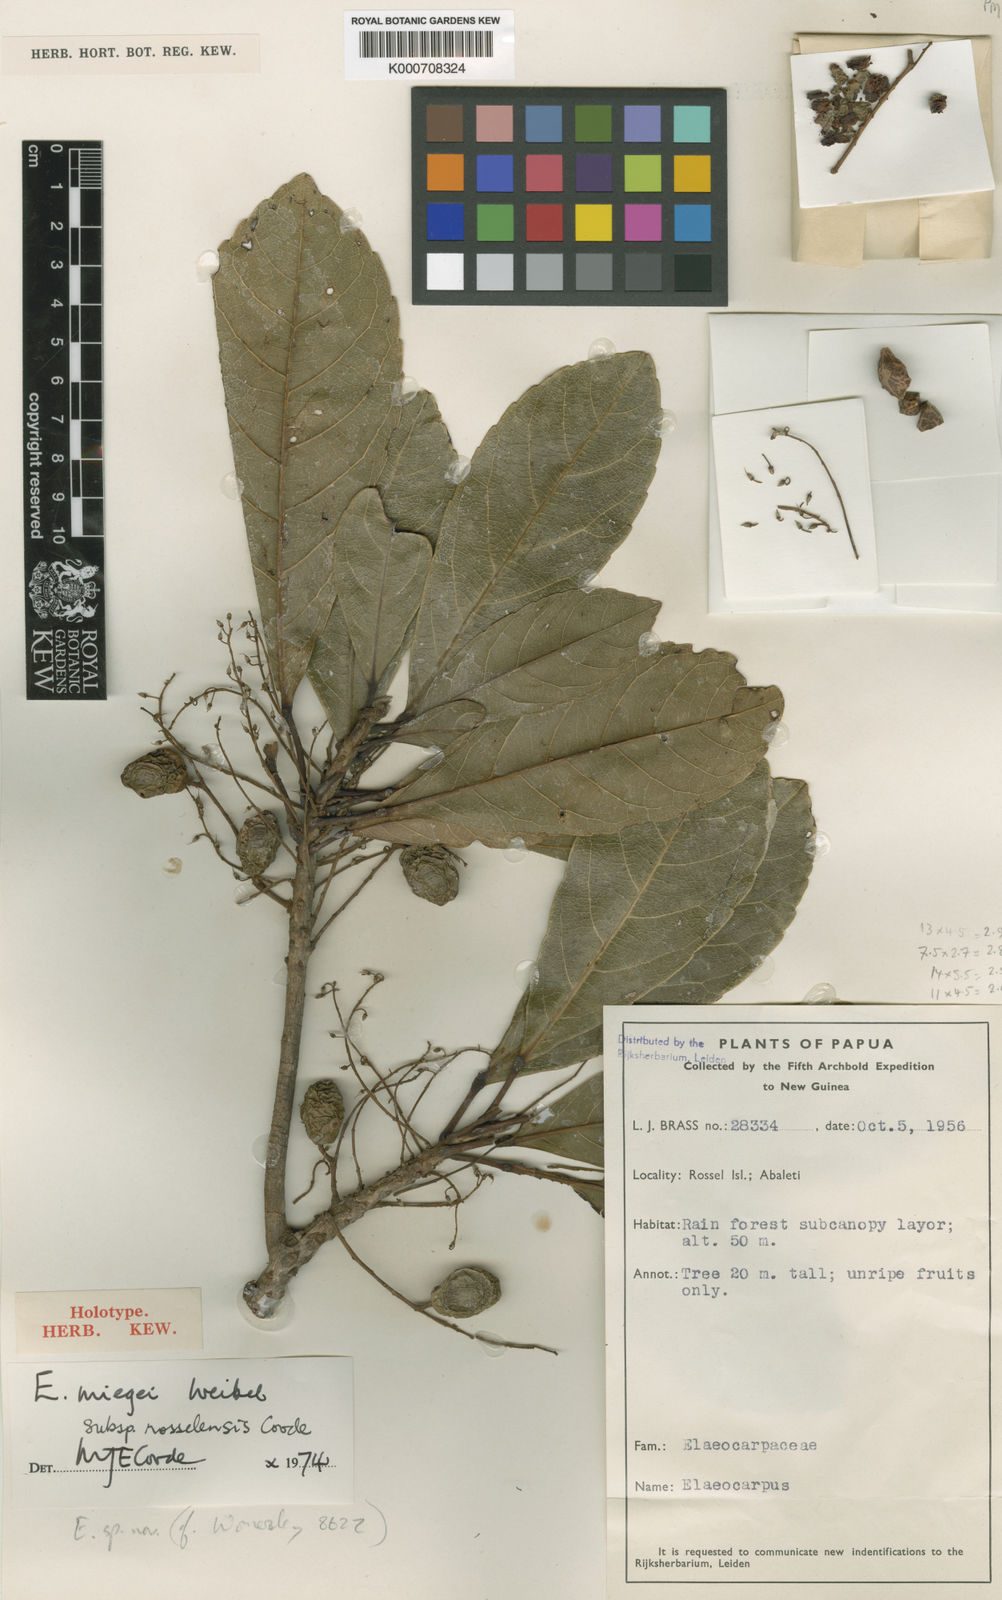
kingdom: Plantae
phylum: Tracheophyta
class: Magnoliopsida
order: Oxalidales
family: Elaeocarpaceae
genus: Elaeocarpus
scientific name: Elaeocarpus miegei
